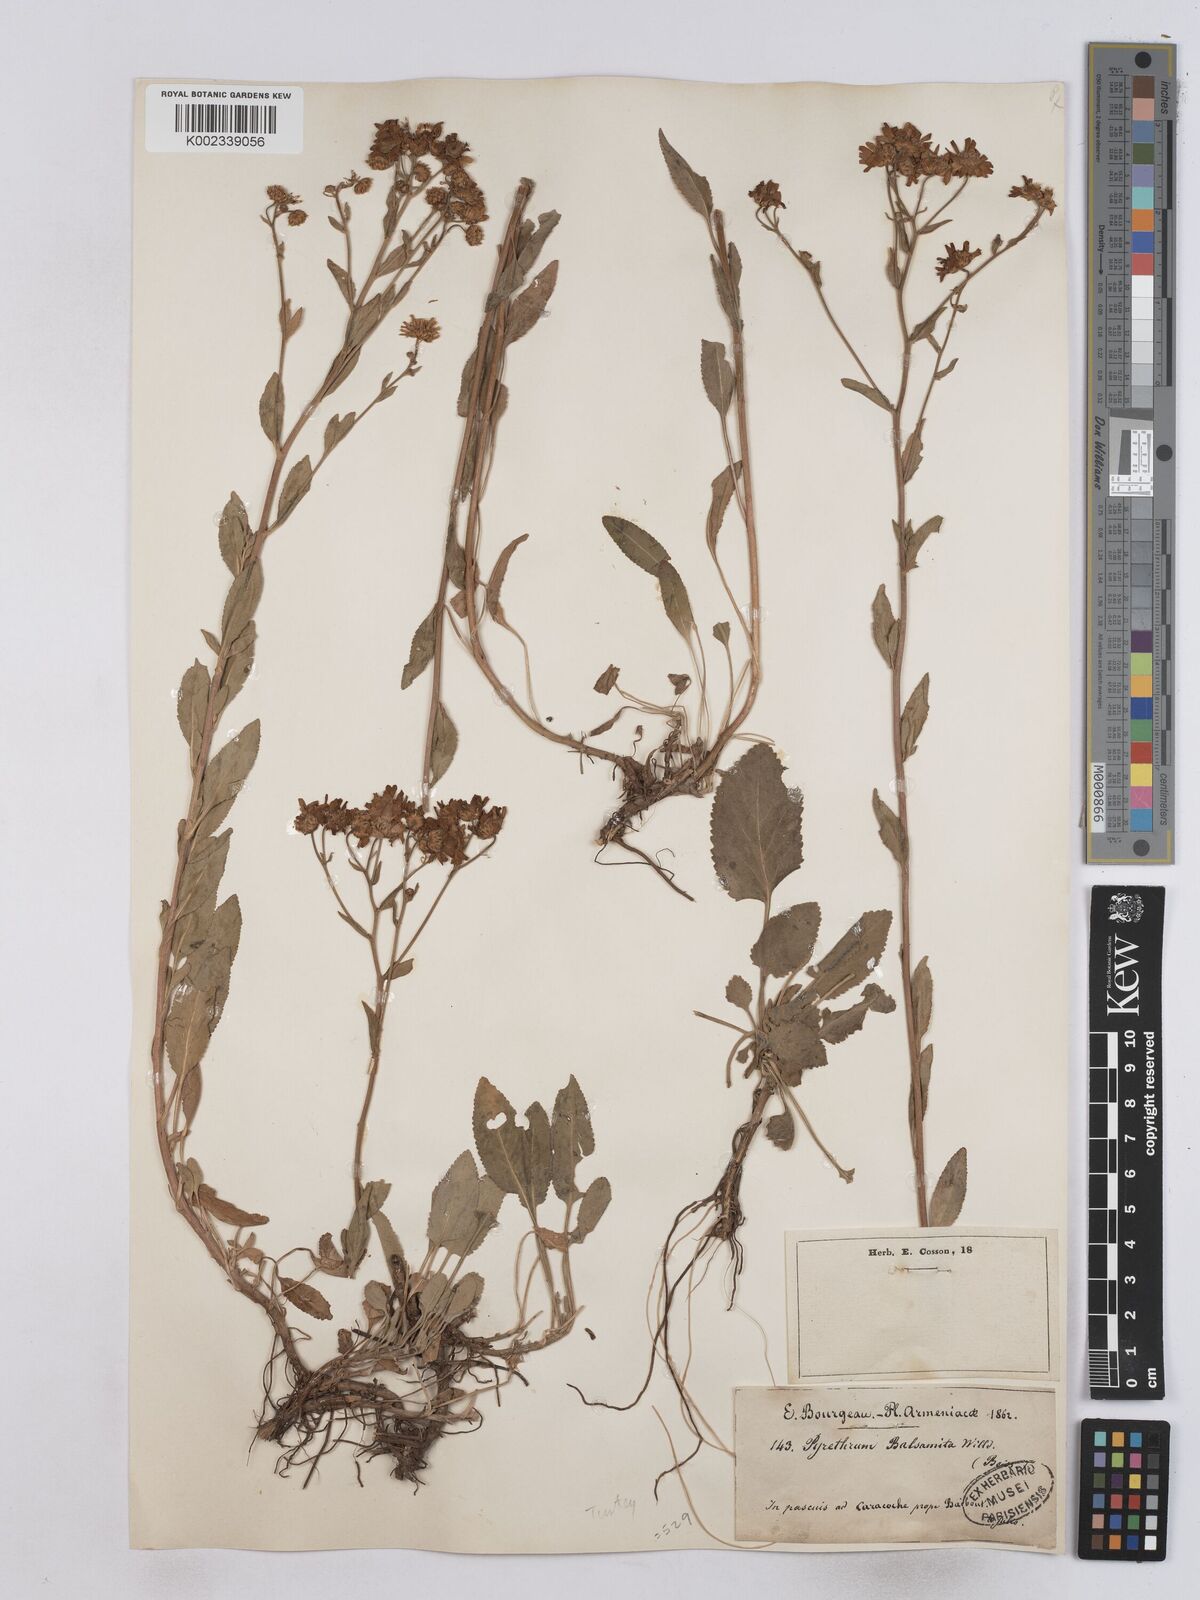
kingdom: Plantae
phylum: Tracheophyta
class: Magnoliopsida
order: Asterales
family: Asteraceae
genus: Tanacetum
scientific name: Tanacetum balsamita
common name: Costmary
